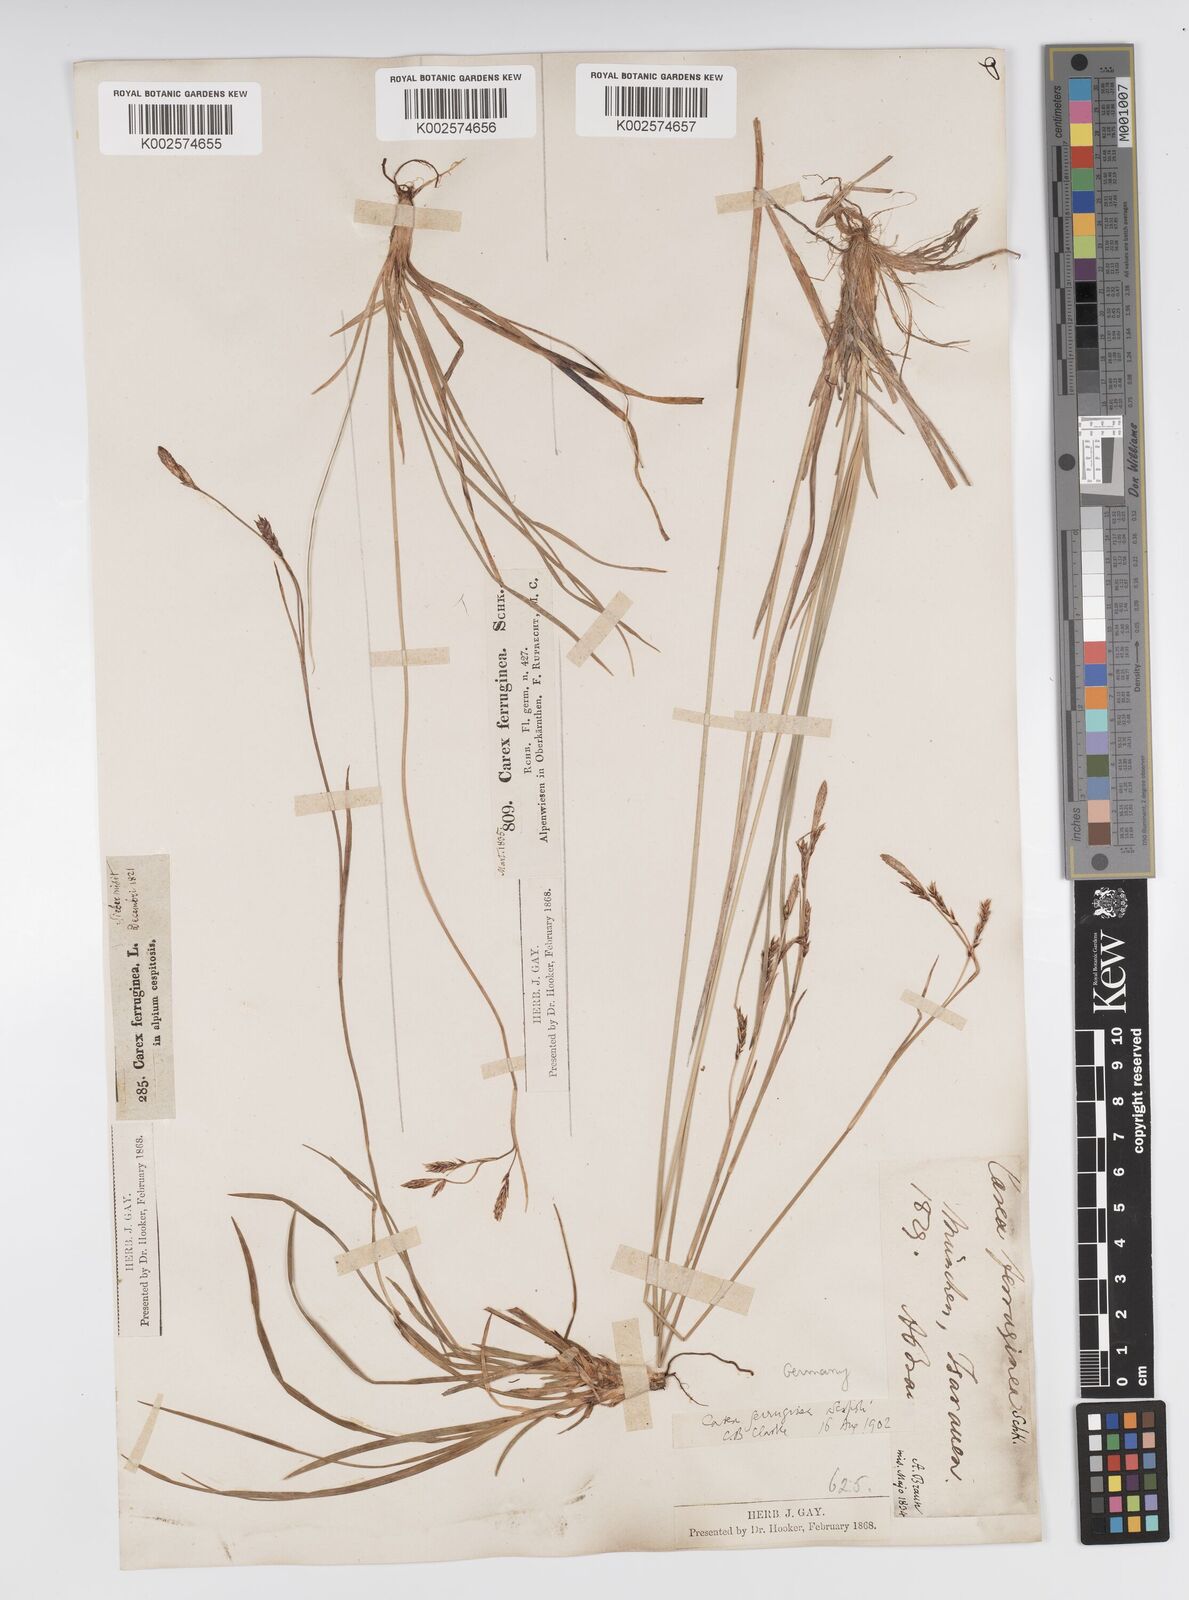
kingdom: Plantae
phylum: Tracheophyta
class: Liliopsida
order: Poales
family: Cyperaceae
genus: Carex
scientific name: Carex ferruginea
